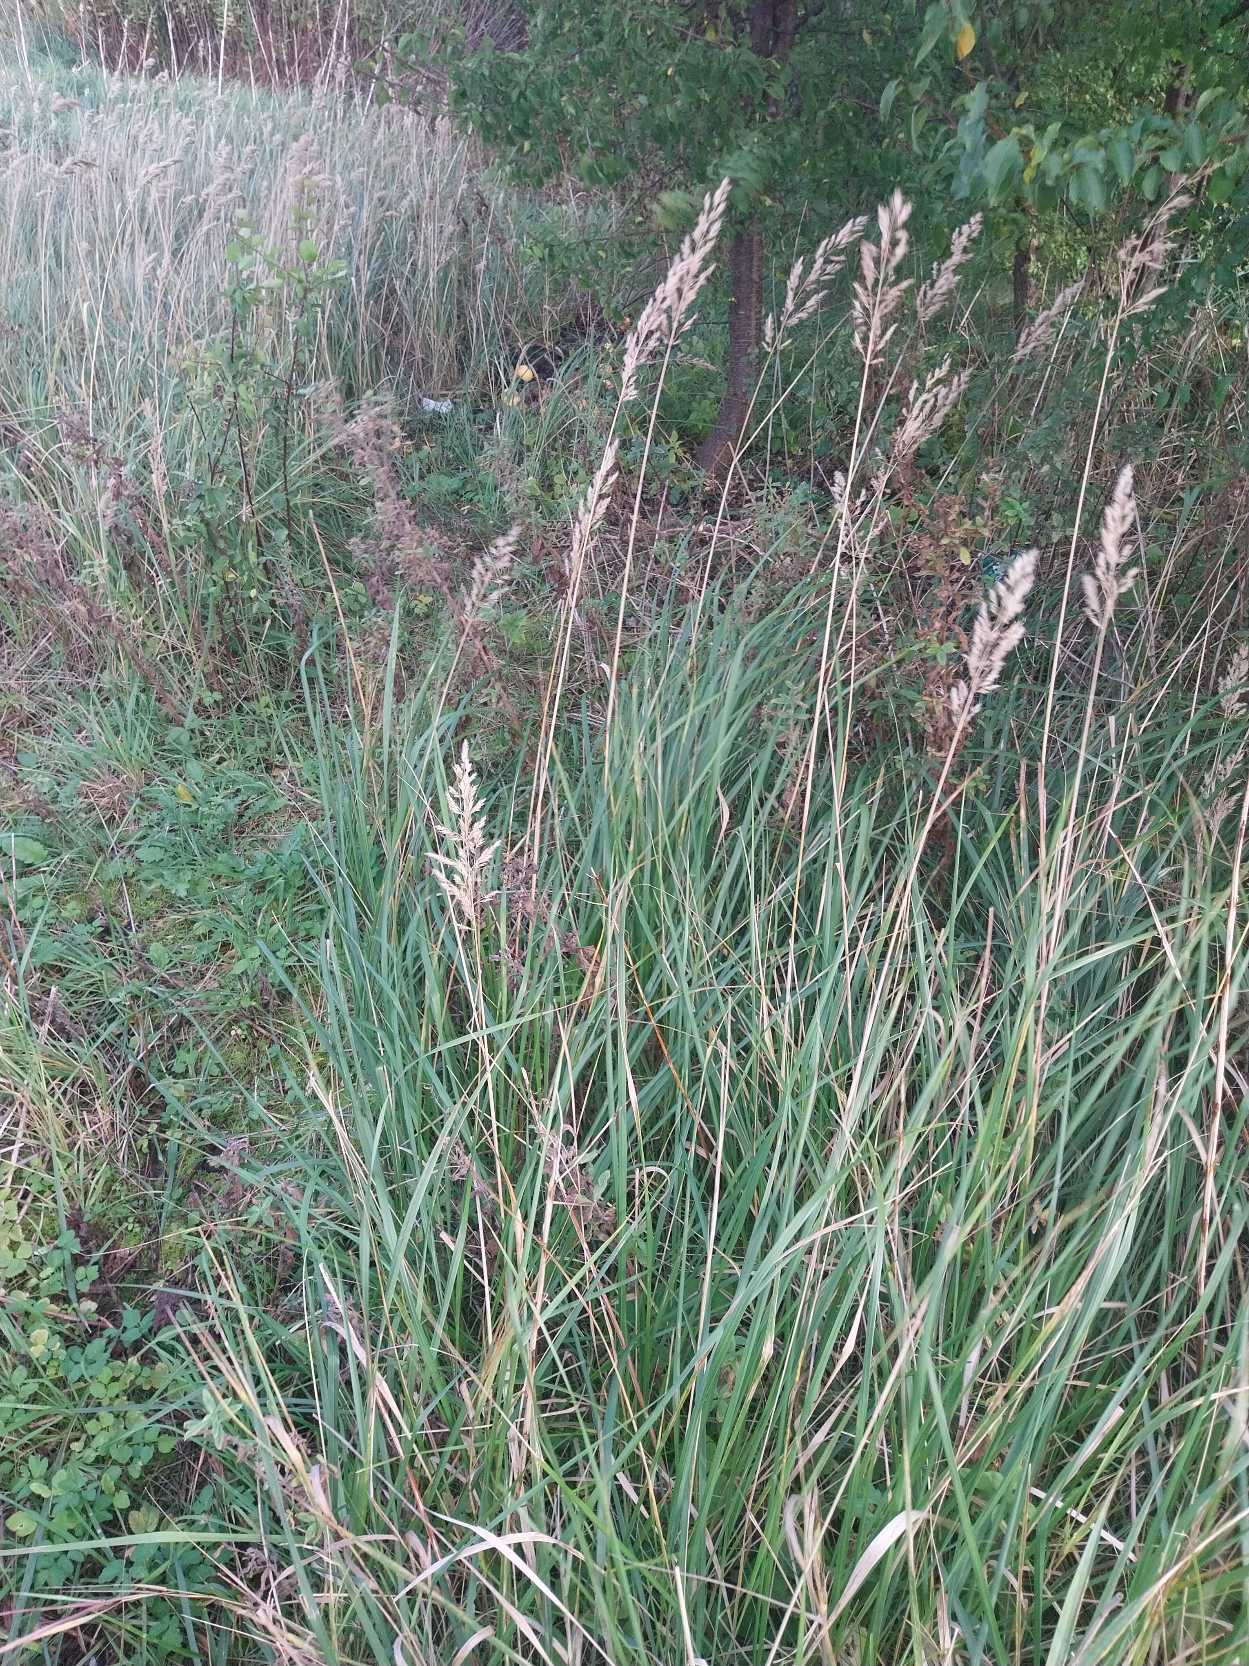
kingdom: Plantae
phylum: Tracheophyta
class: Liliopsida
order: Poales
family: Poaceae
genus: Calamagrostis
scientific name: Calamagrostis epigejos
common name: Bjerg-rørhvene
